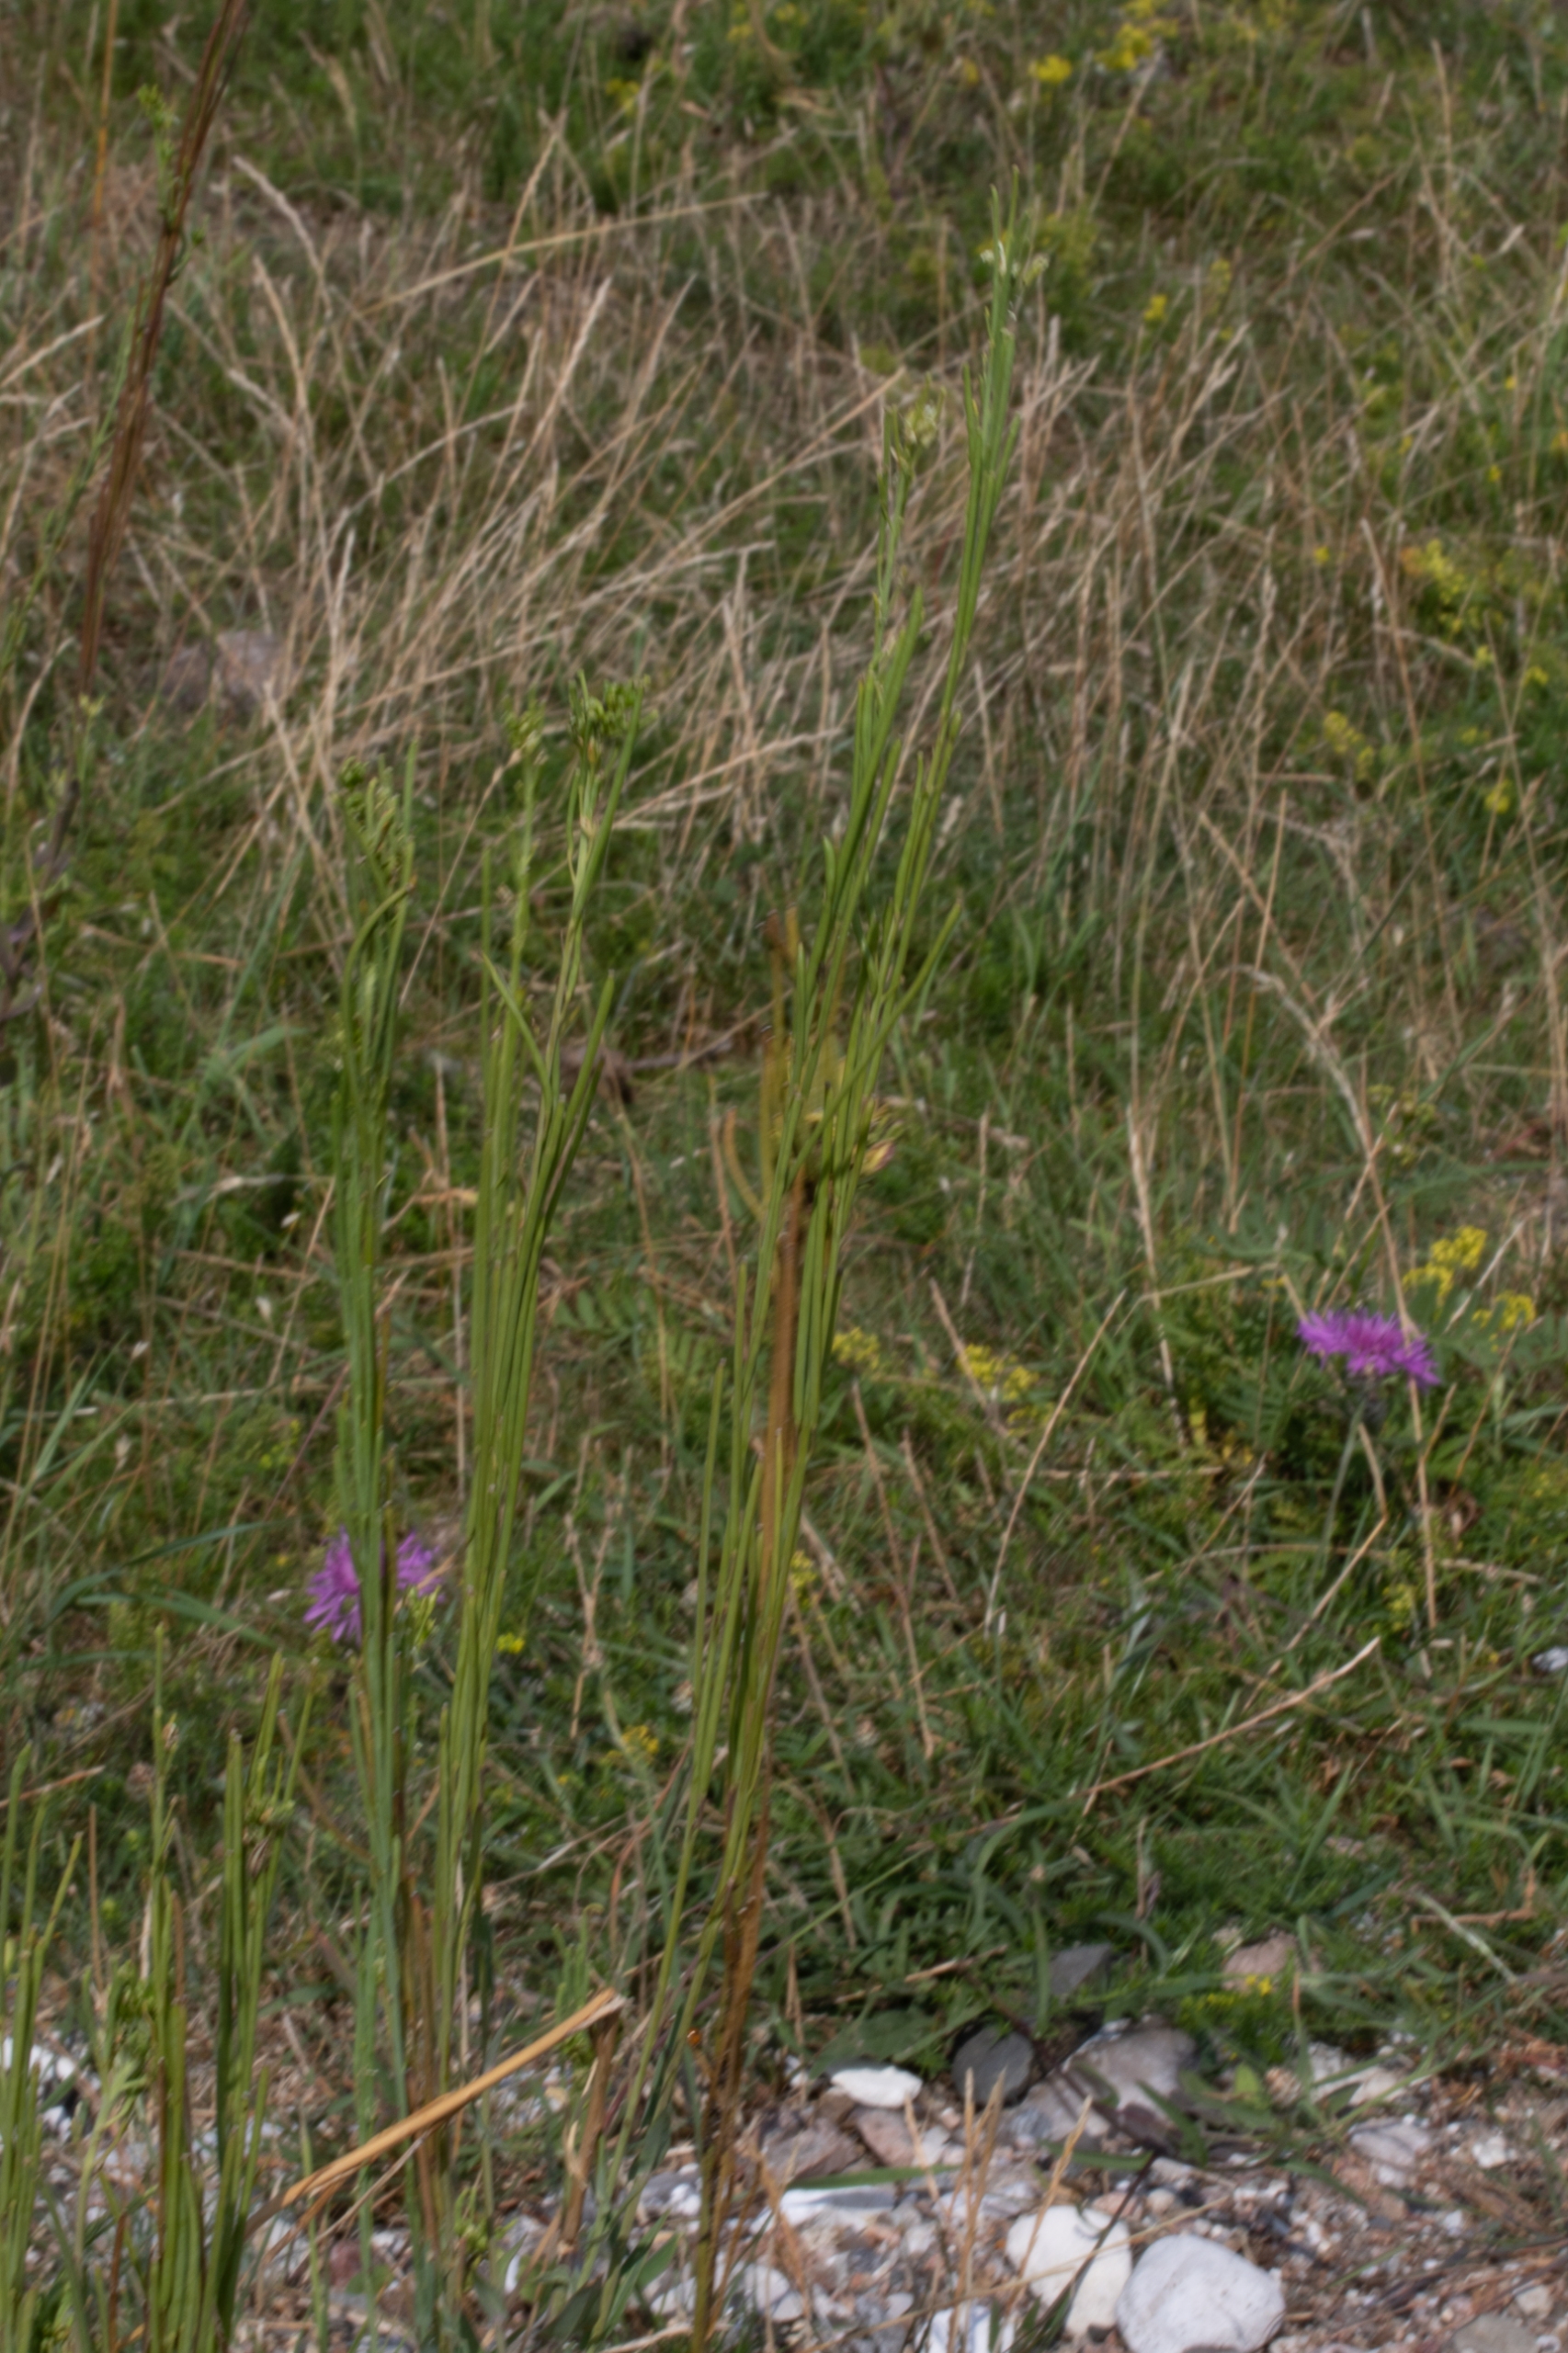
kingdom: Plantae
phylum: Tracheophyta
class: Magnoliopsida
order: Brassicales
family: Brassicaceae
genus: Turritis
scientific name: Turritis glabra
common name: Tårnurt
